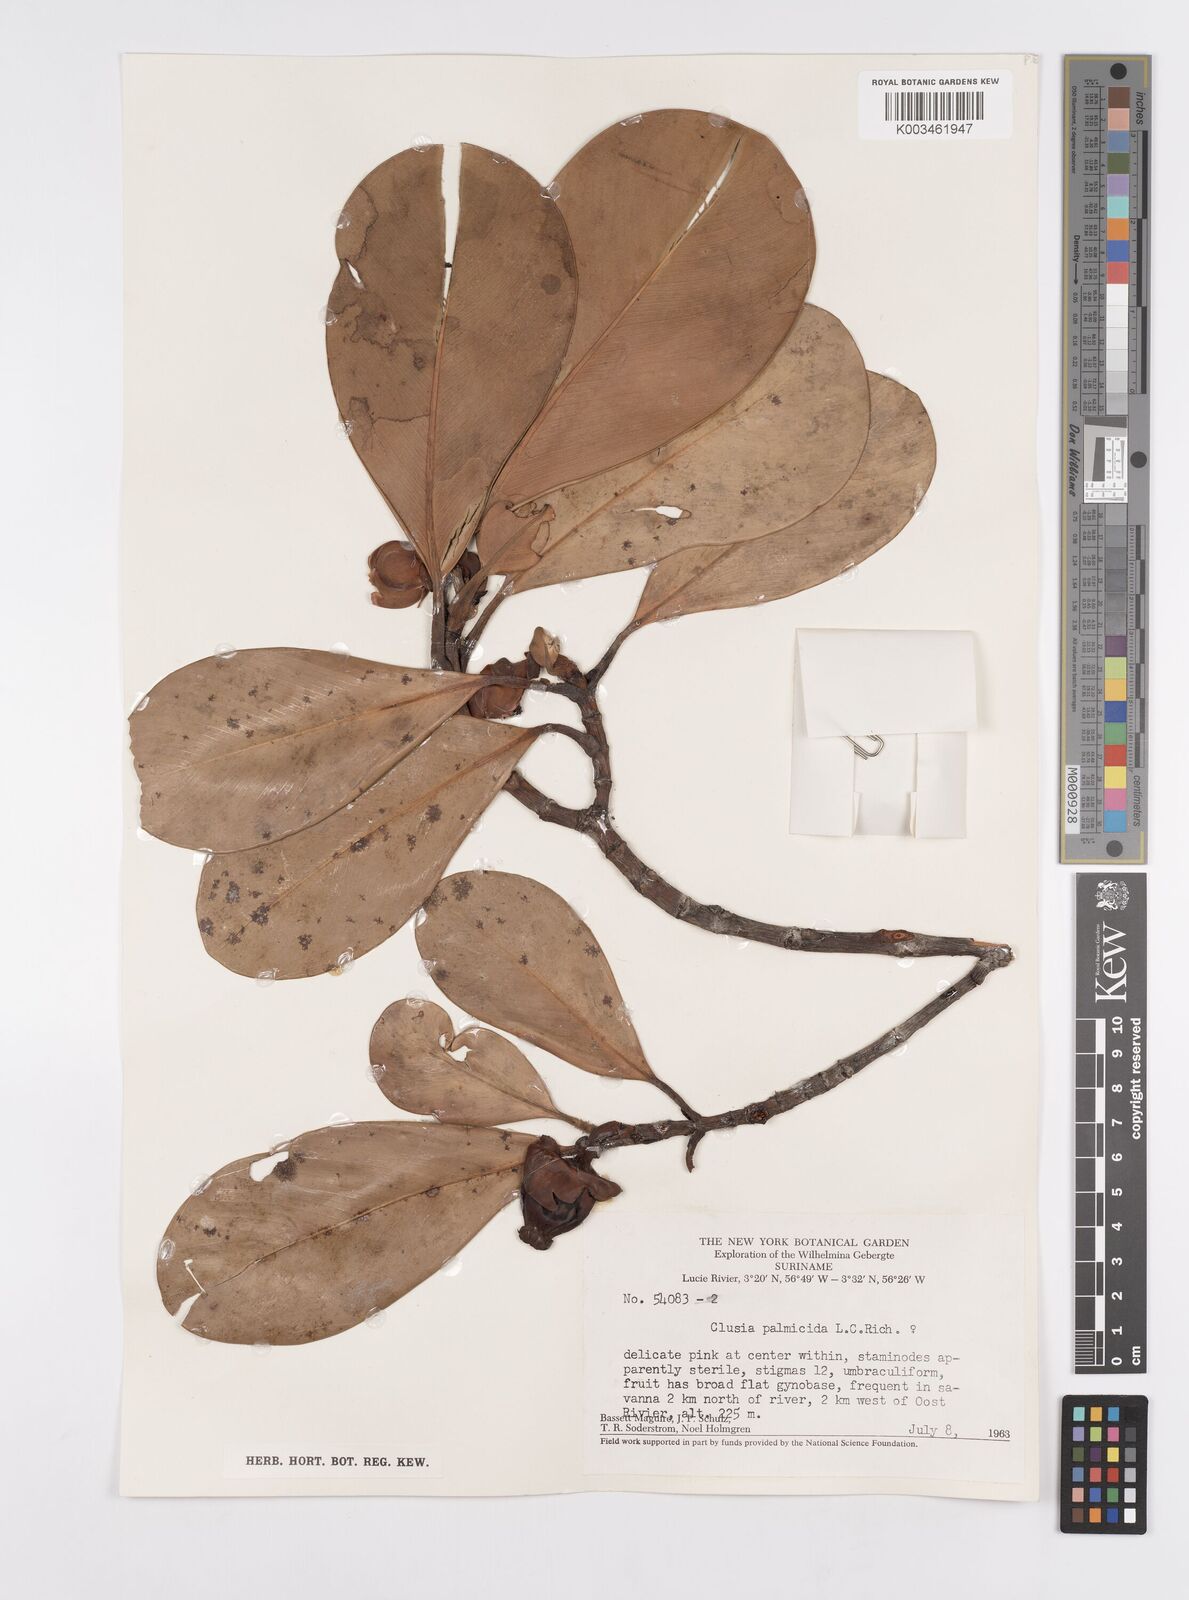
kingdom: Plantae
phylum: Tracheophyta
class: Magnoliopsida
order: Malpighiales
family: Clusiaceae
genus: Clusia
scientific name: Clusia palmicida
